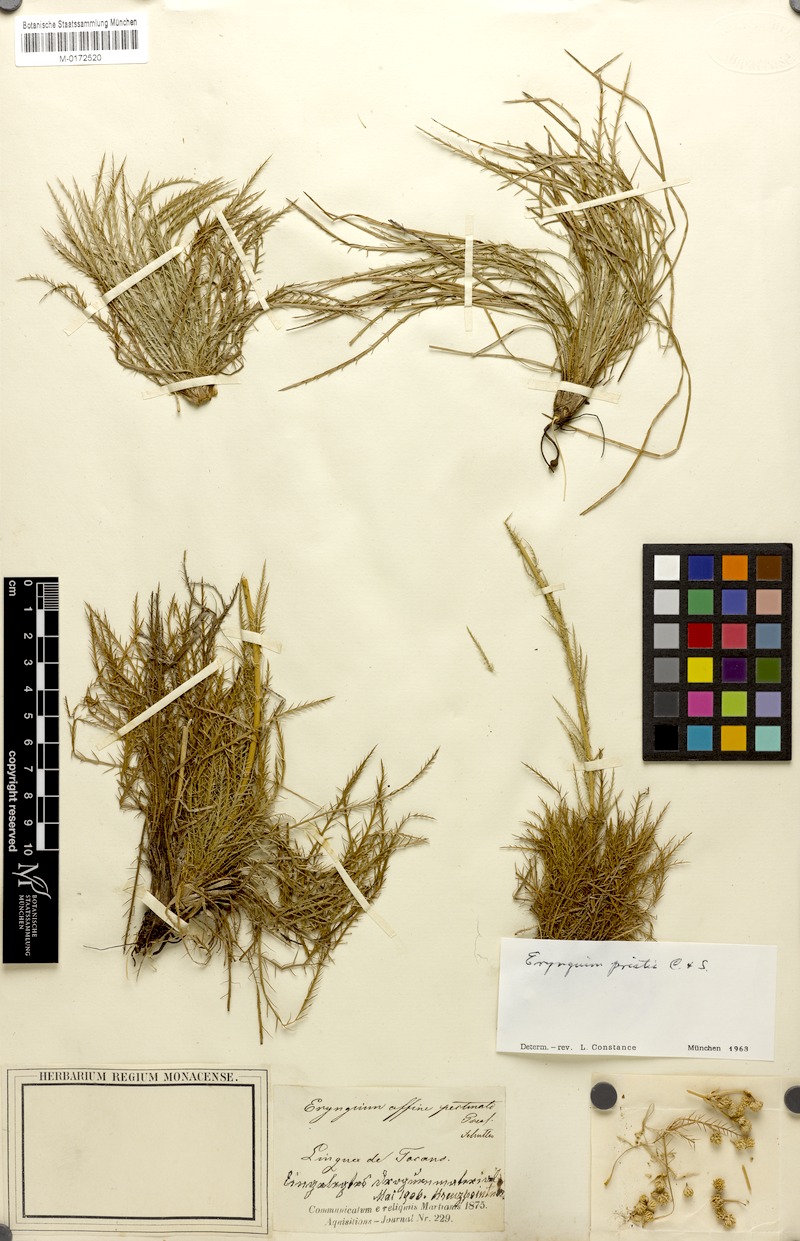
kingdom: Plantae
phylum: Tracheophyta
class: Magnoliopsida
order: Apiales
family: Apiaceae
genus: Eryngium
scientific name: Eryngium pristis
